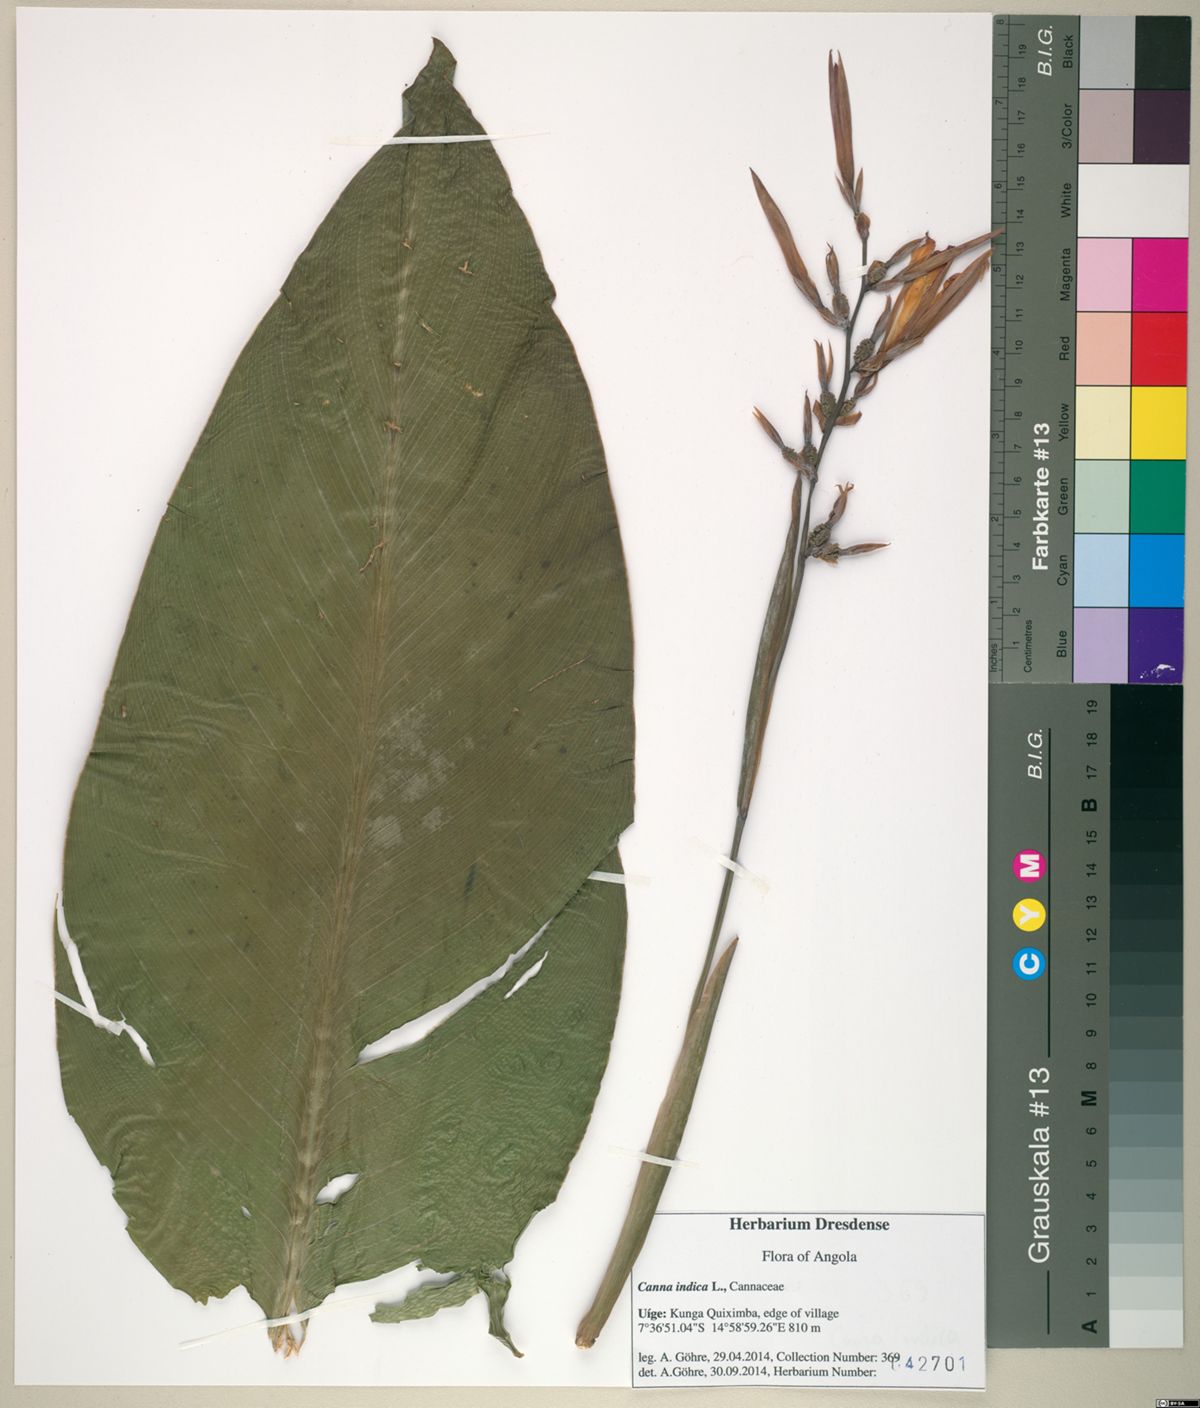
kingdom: Plantae
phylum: Tracheophyta
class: Liliopsida
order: Zingiberales
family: Cannaceae
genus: Canna
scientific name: Canna indica
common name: Indian shot
